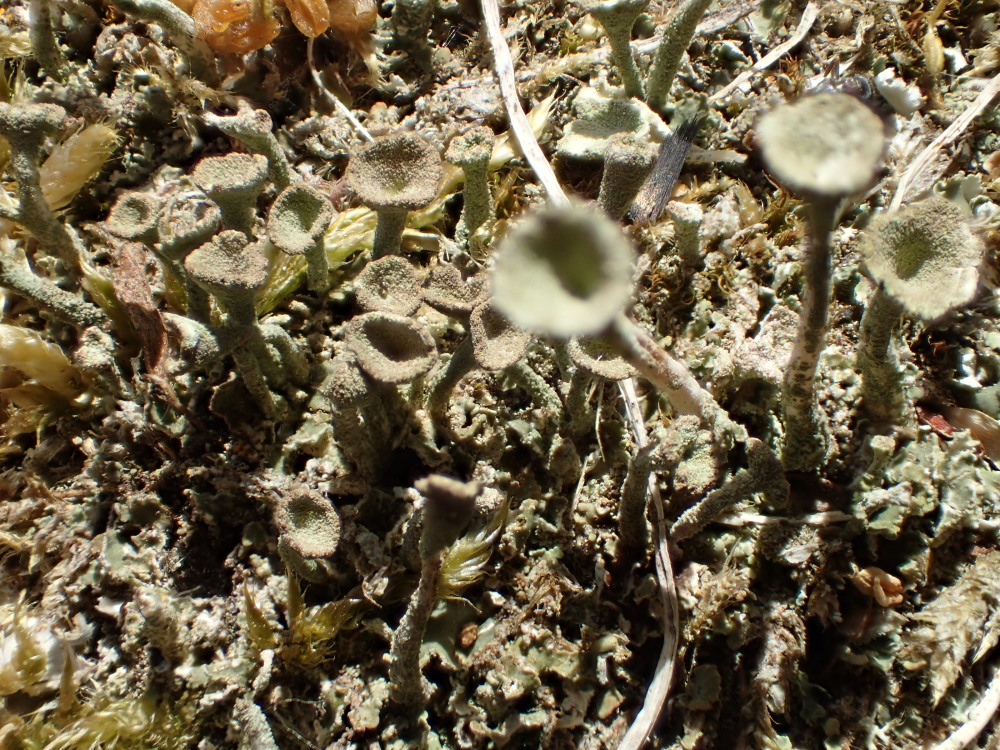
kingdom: Fungi
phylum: Ascomycota
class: Lecanoromycetes
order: Lecanorales
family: Cladoniaceae
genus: Cladonia
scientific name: Cladonia fimbriata
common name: bleggrøn bægerlav
